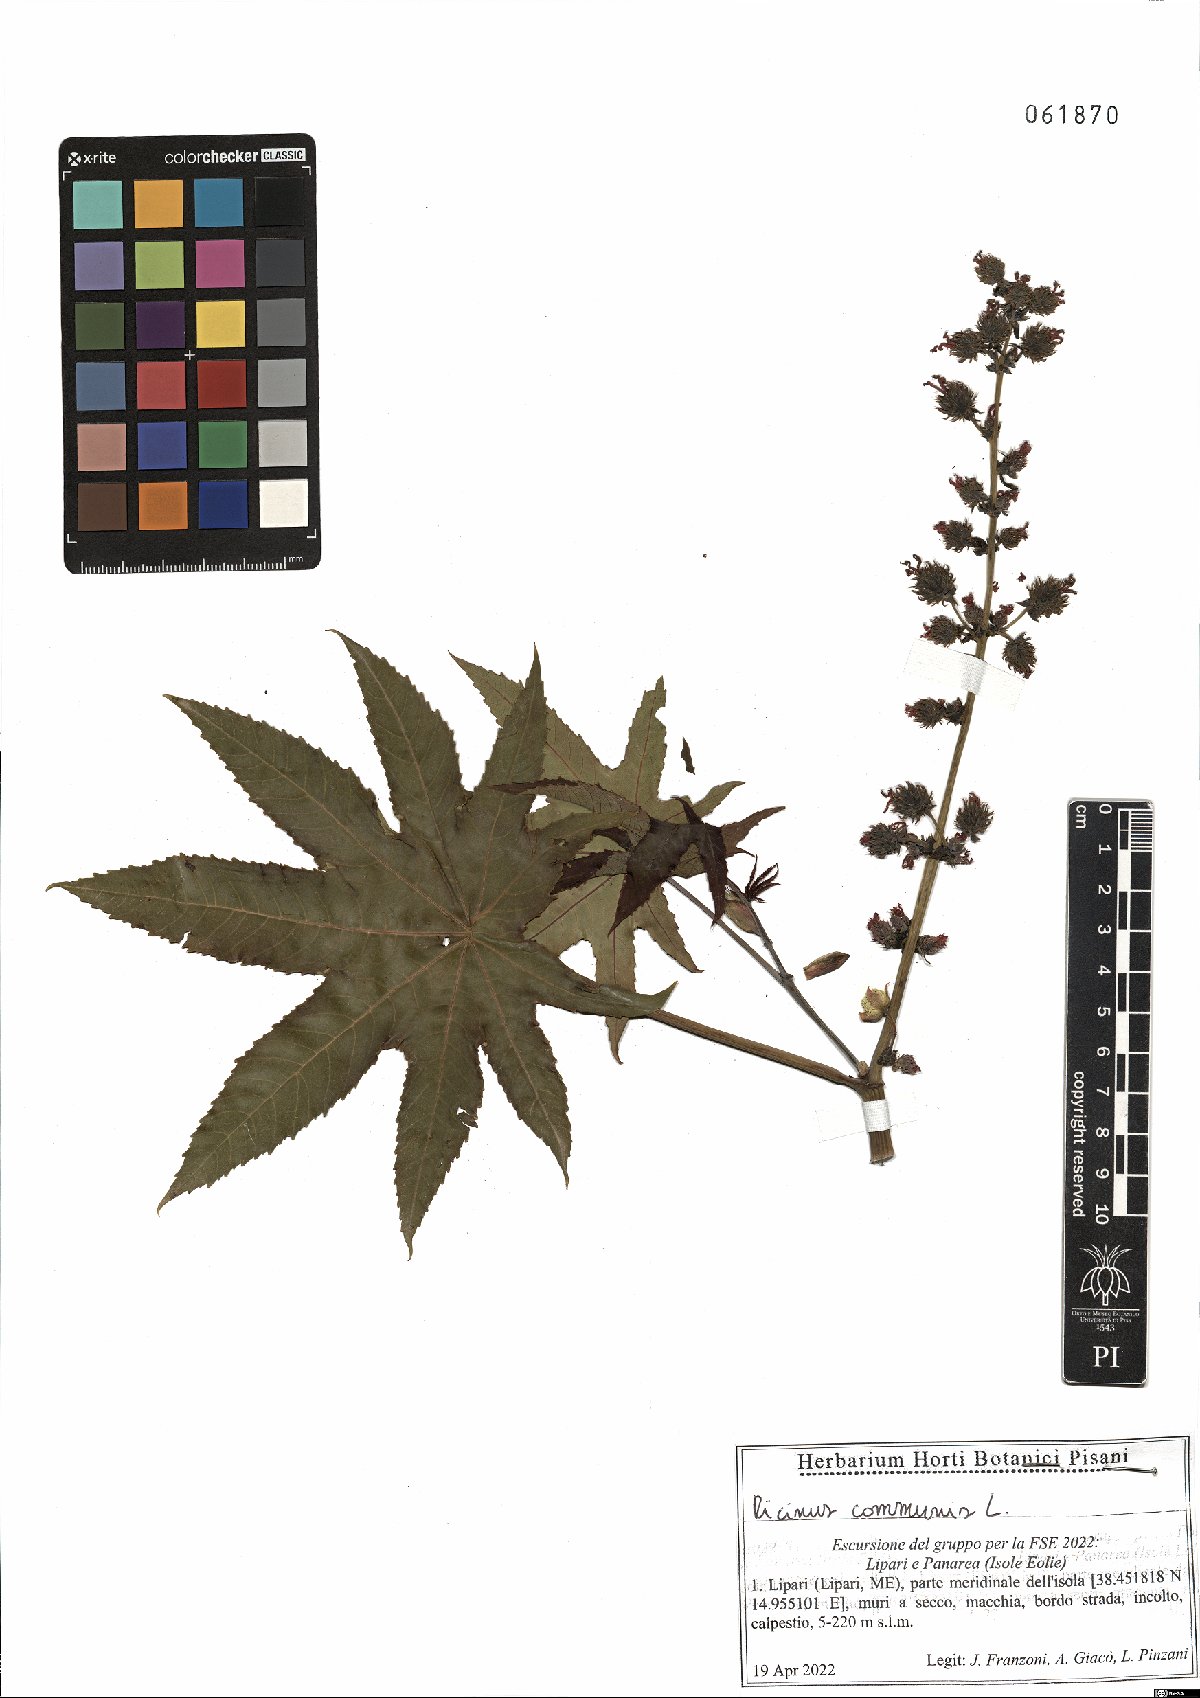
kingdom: Plantae
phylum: Tracheophyta
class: Magnoliopsida
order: Malpighiales
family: Euphorbiaceae
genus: Ricinus
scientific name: Ricinus communis
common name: Castor-oil-plant
